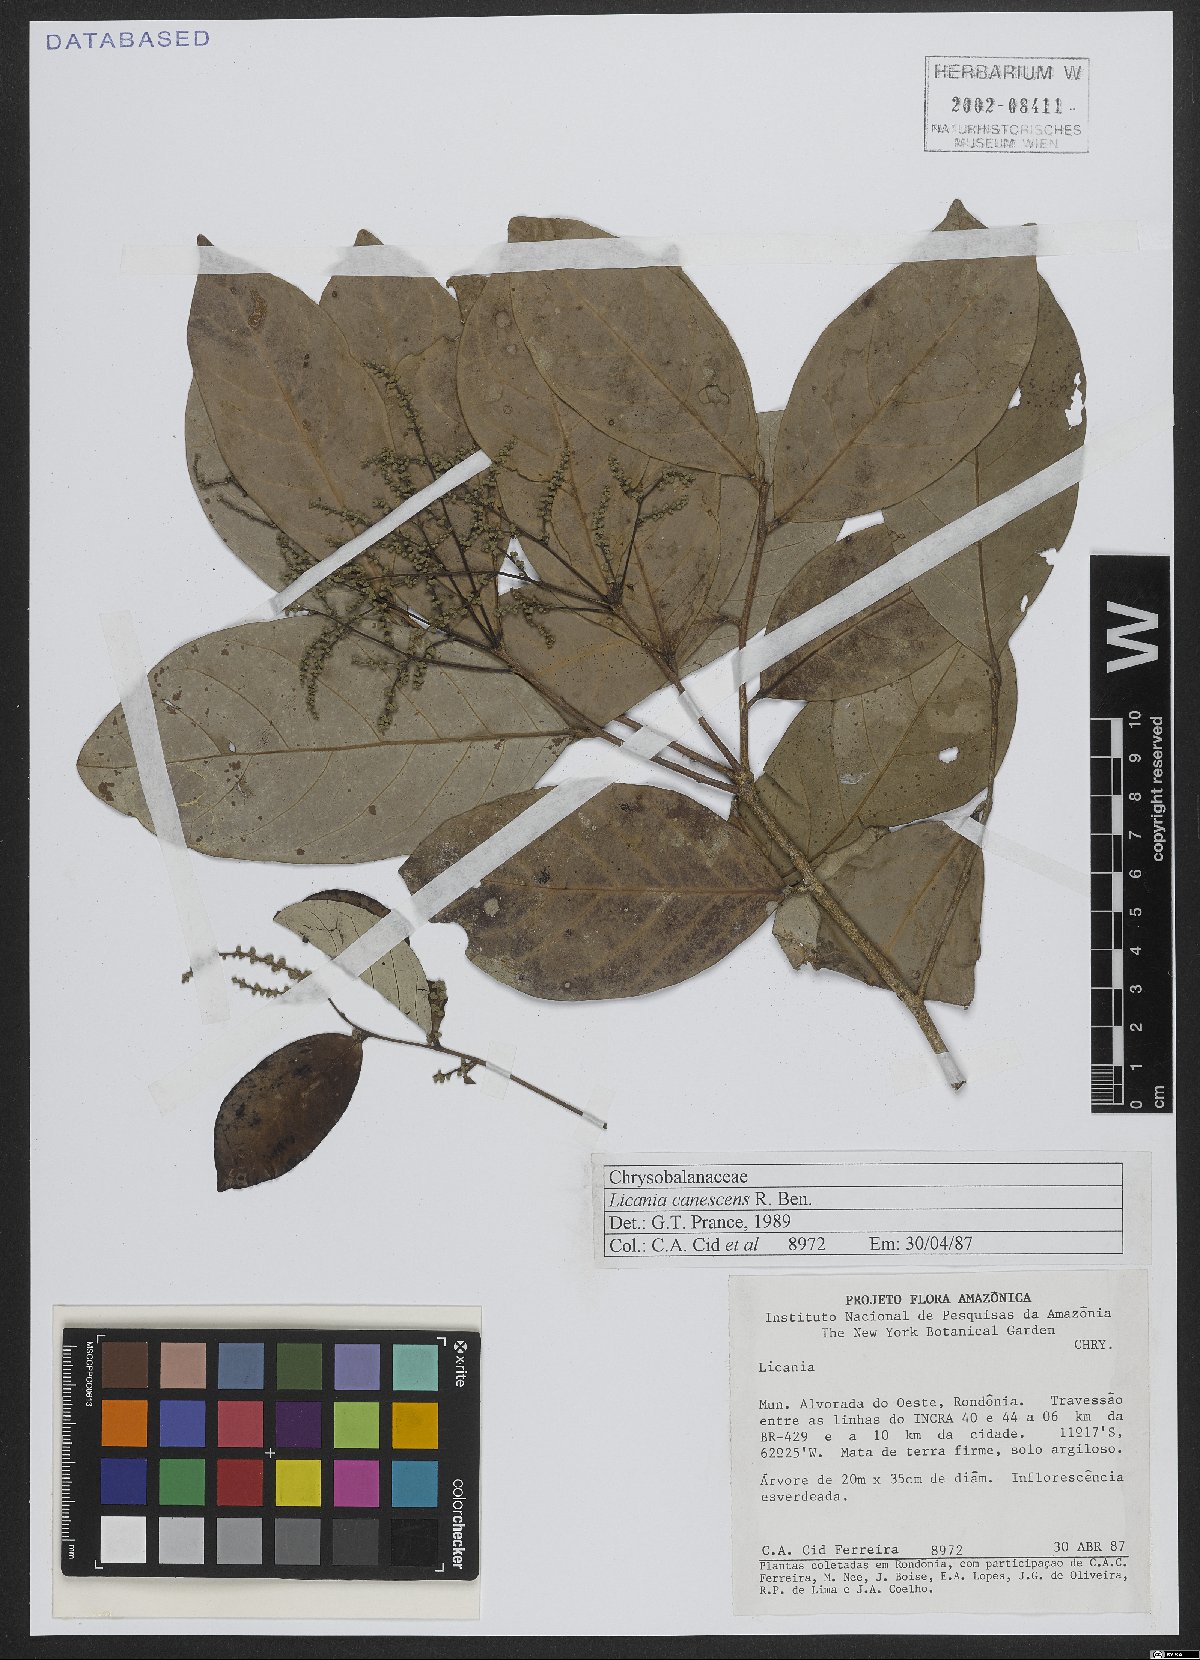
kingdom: Plantae
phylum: Tracheophyta
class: Magnoliopsida
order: Malpighiales
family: Chrysobalanaceae
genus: Licania
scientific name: Licania canescens
